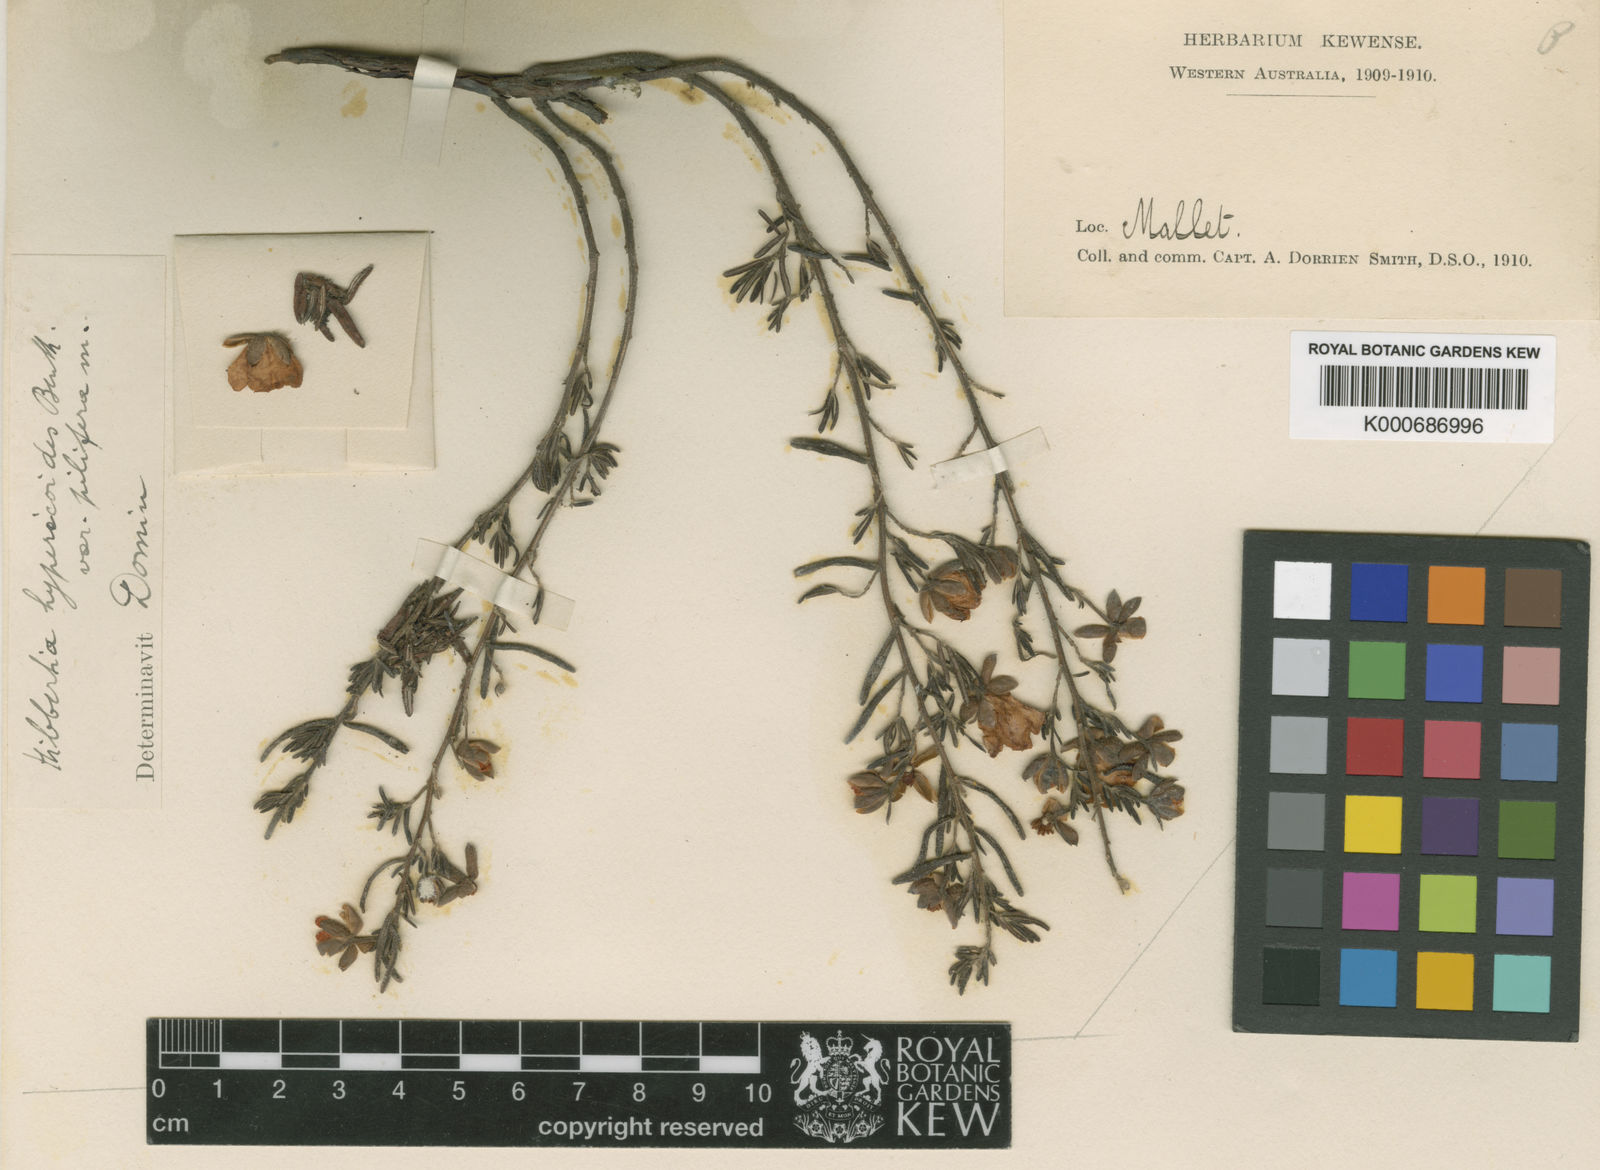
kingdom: Plantae
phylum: Tracheophyta
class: Magnoliopsida
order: Dilleniales
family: Dilleniaceae
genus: Hibbertia
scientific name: Hibbertia hypericoides
